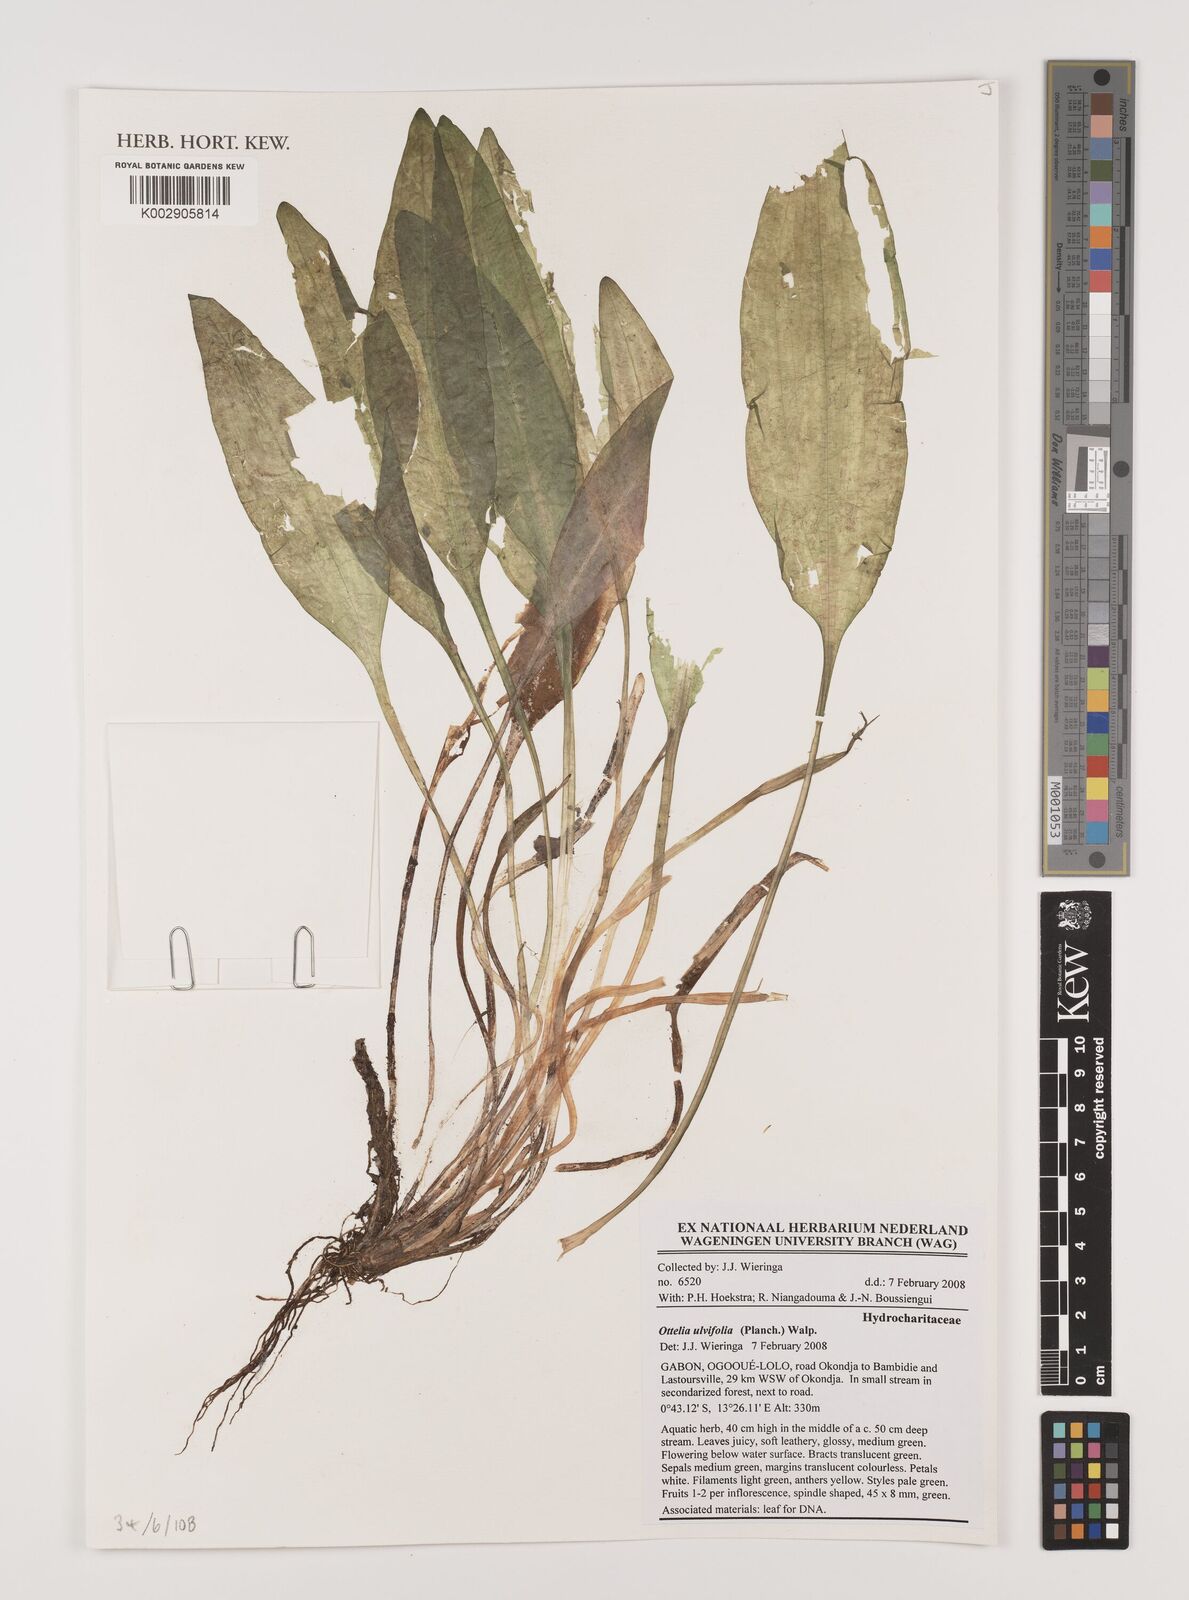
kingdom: Plantae
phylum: Tracheophyta
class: Liliopsida
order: Alismatales
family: Hydrocharitaceae
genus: Ottelia
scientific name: Ottelia ulvifolia
